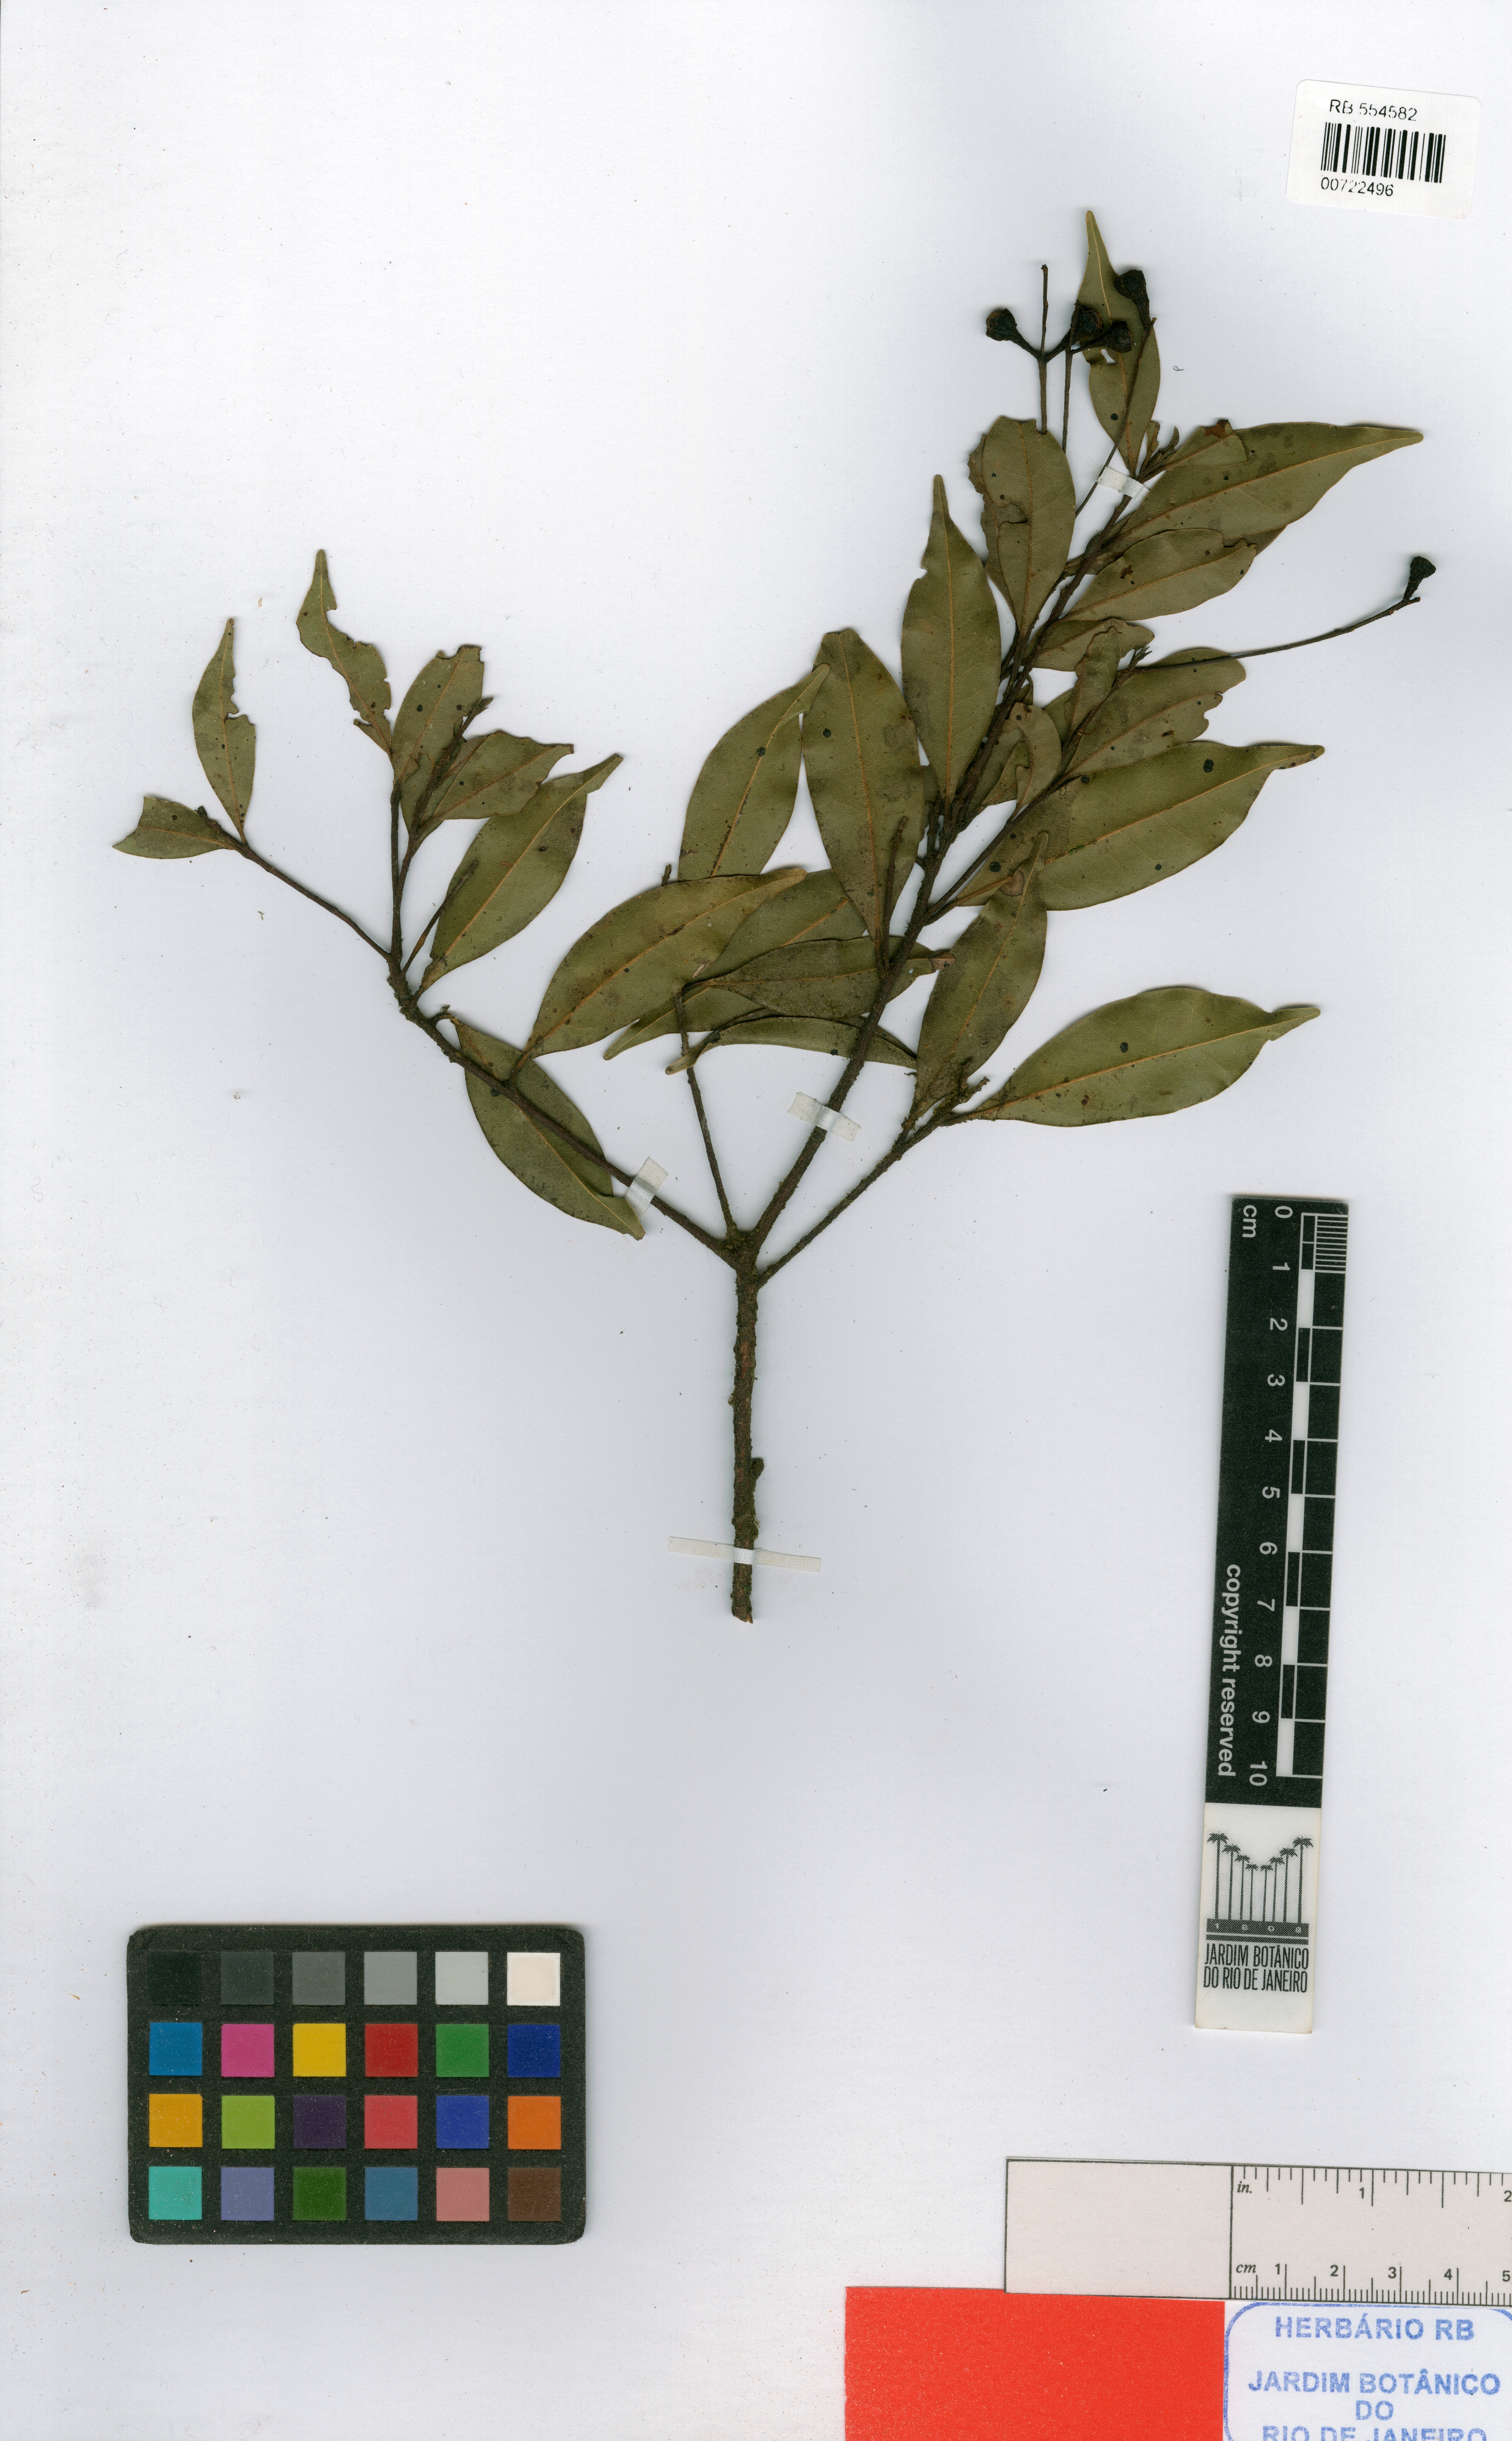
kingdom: Plantae
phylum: Tracheophyta
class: Magnoliopsida
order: Laurales
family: Lauraceae
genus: Ocotea
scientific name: Ocotea marumbiensis
